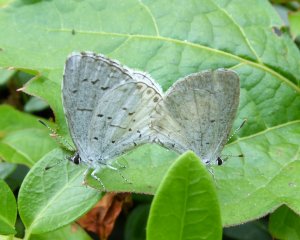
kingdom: Animalia
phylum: Arthropoda
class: Insecta
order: Lepidoptera
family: Lycaenidae
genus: Cyaniris
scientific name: Cyaniris neglecta
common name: Summer Azure
